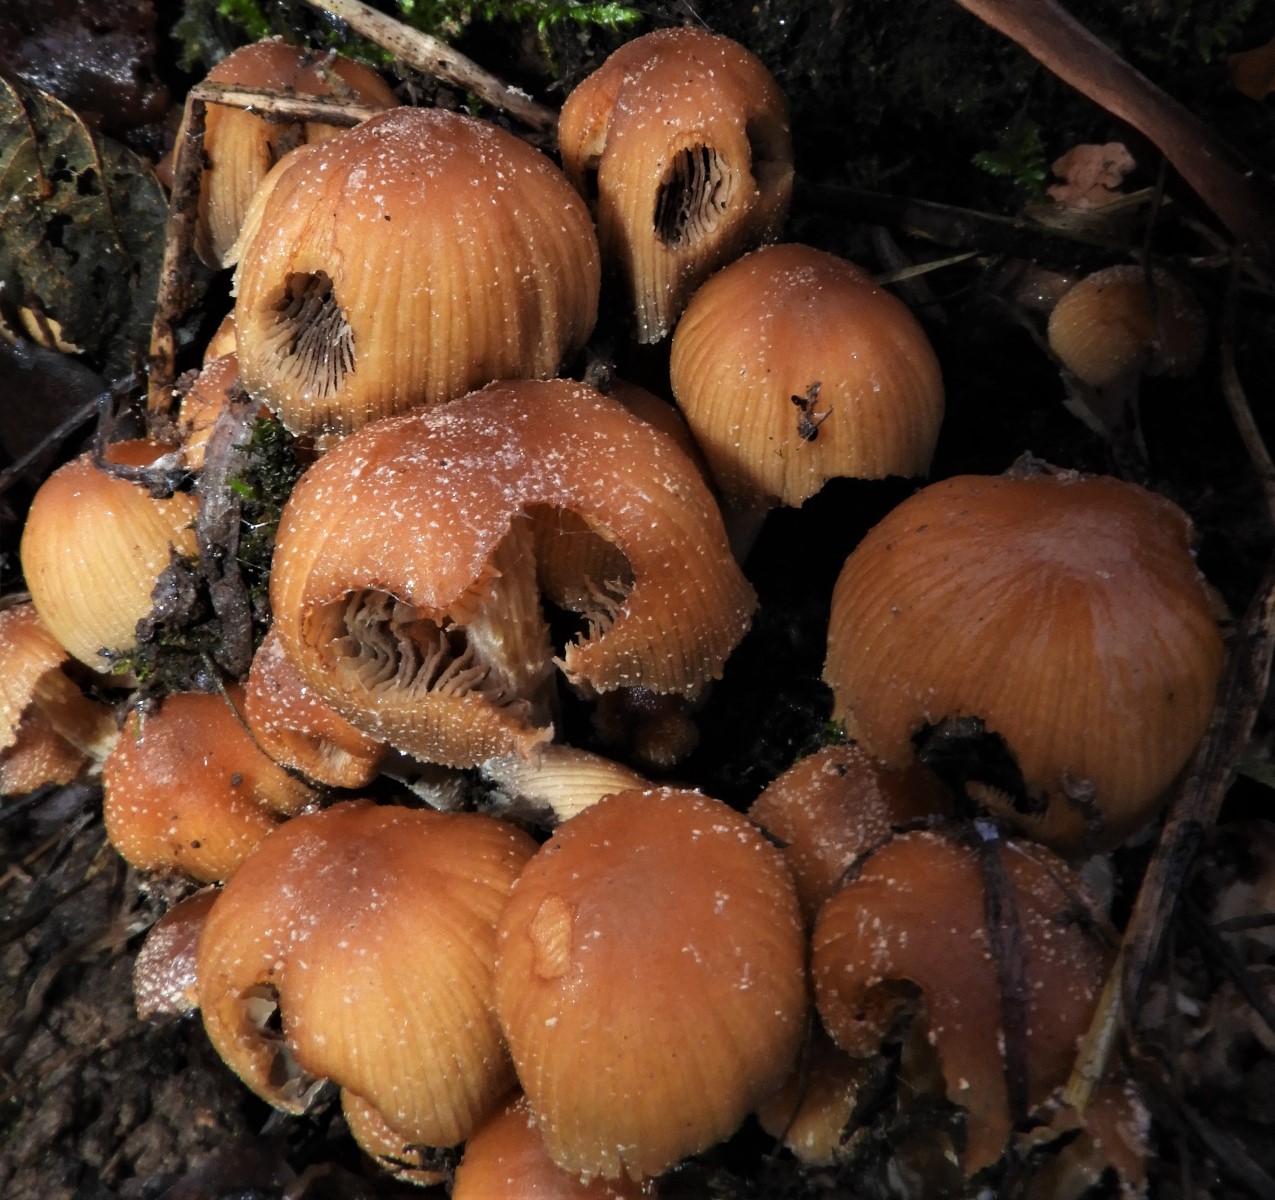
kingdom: Fungi
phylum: Basidiomycota
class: Agaricomycetes
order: Agaricales
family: Psathyrellaceae
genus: Coprinellus
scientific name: Coprinellus micaceus
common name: glimmer-blækhat
